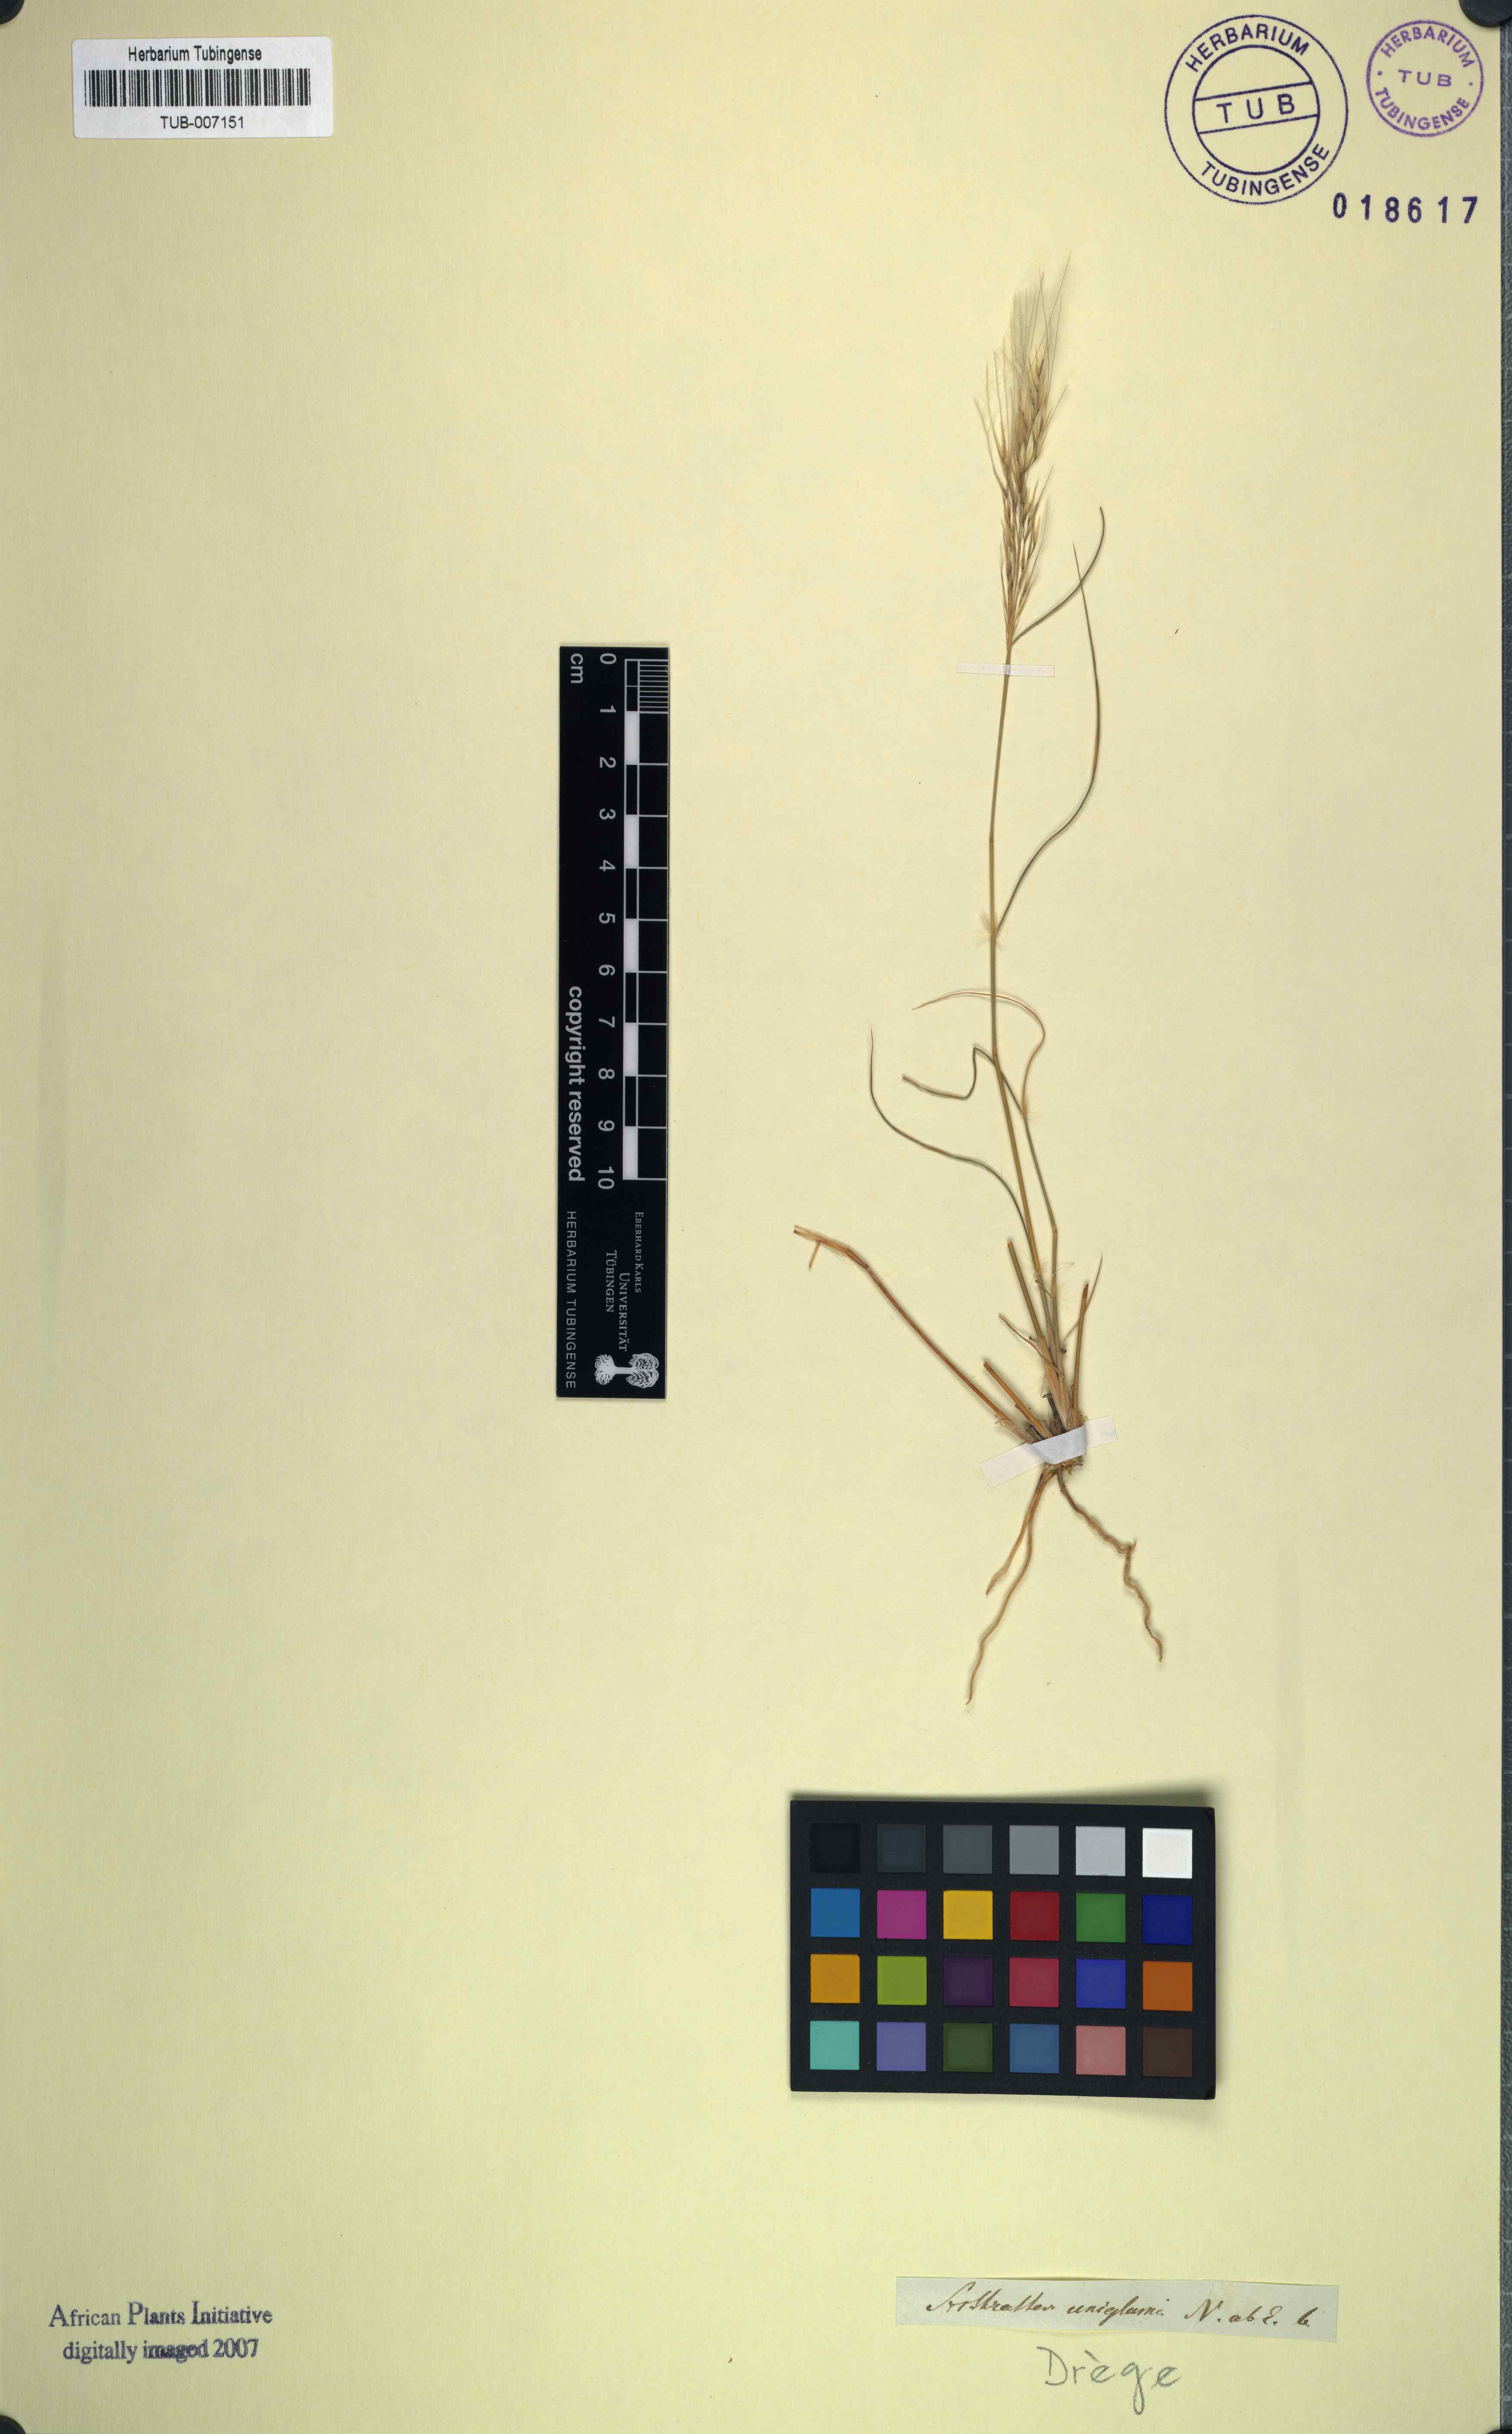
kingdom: Plantae
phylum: Tracheophyta
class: Liliopsida
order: Poales
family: Poaceae
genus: Stipagrostis
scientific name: Stipagrostis uniplumis
